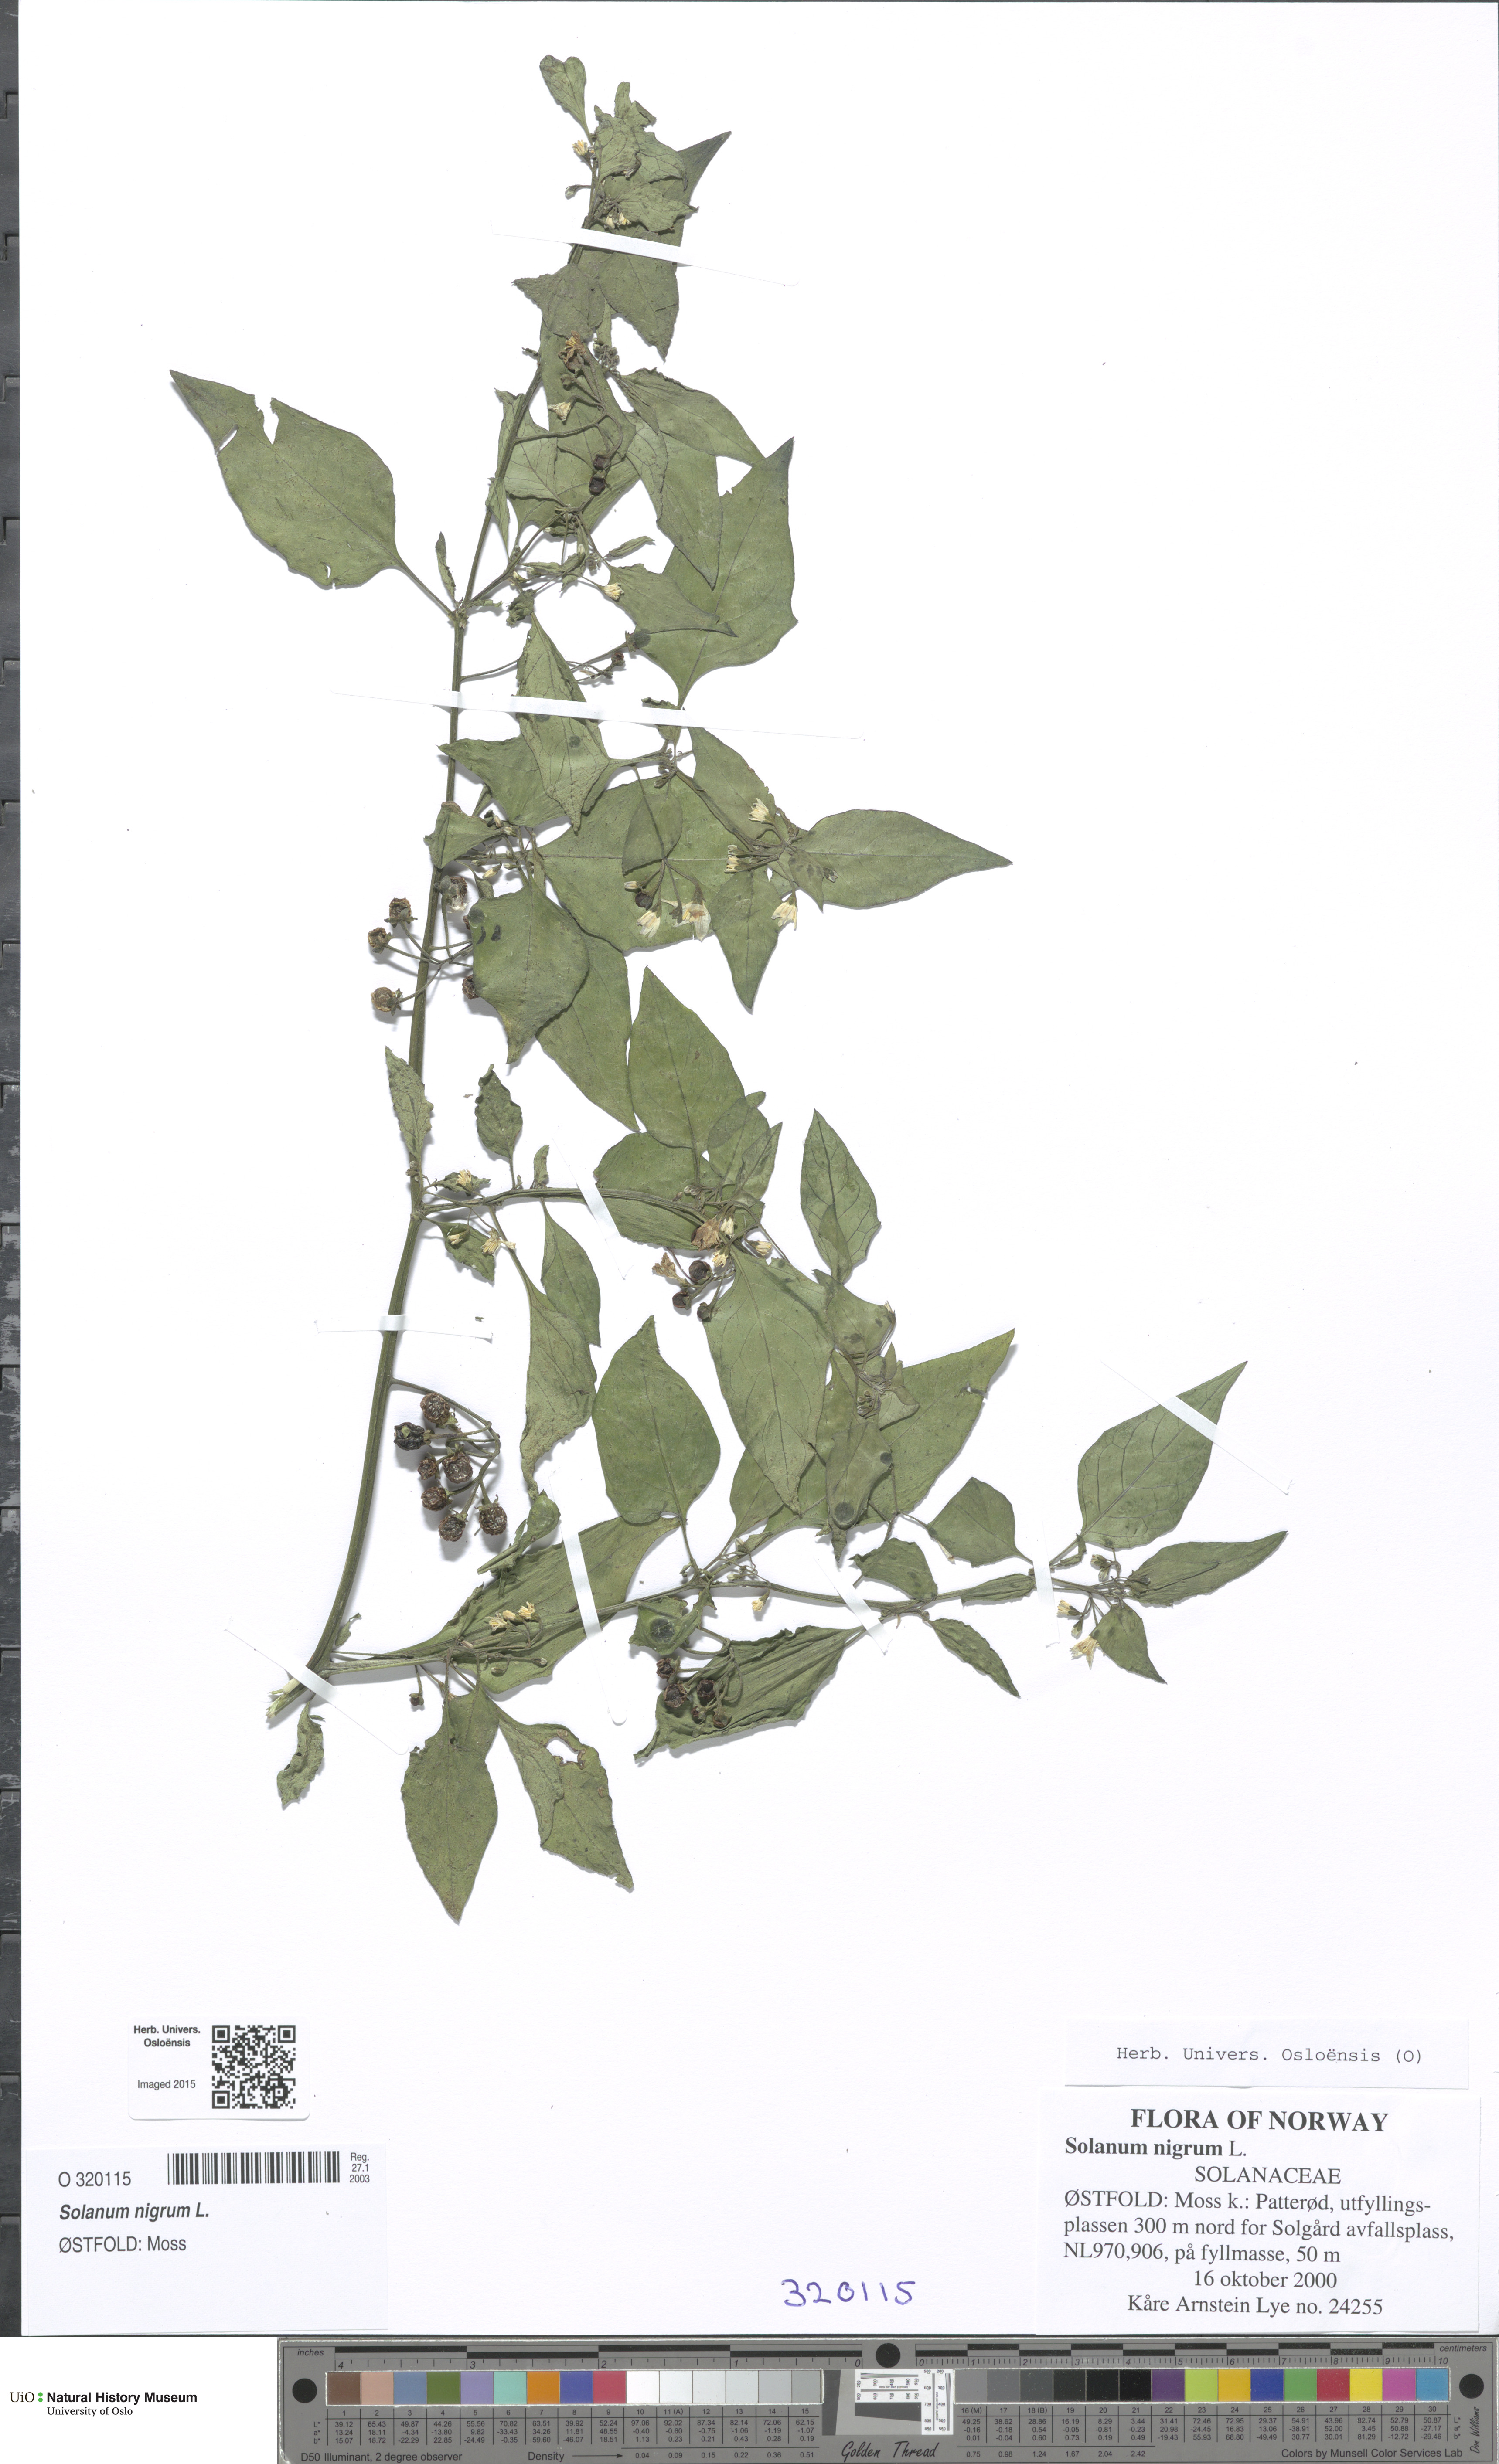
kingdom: Plantae
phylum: Tracheophyta
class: Magnoliopsida
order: Solanales
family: Solanaceae
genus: Solanum
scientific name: Solanum nigrum
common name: Black nightshade
